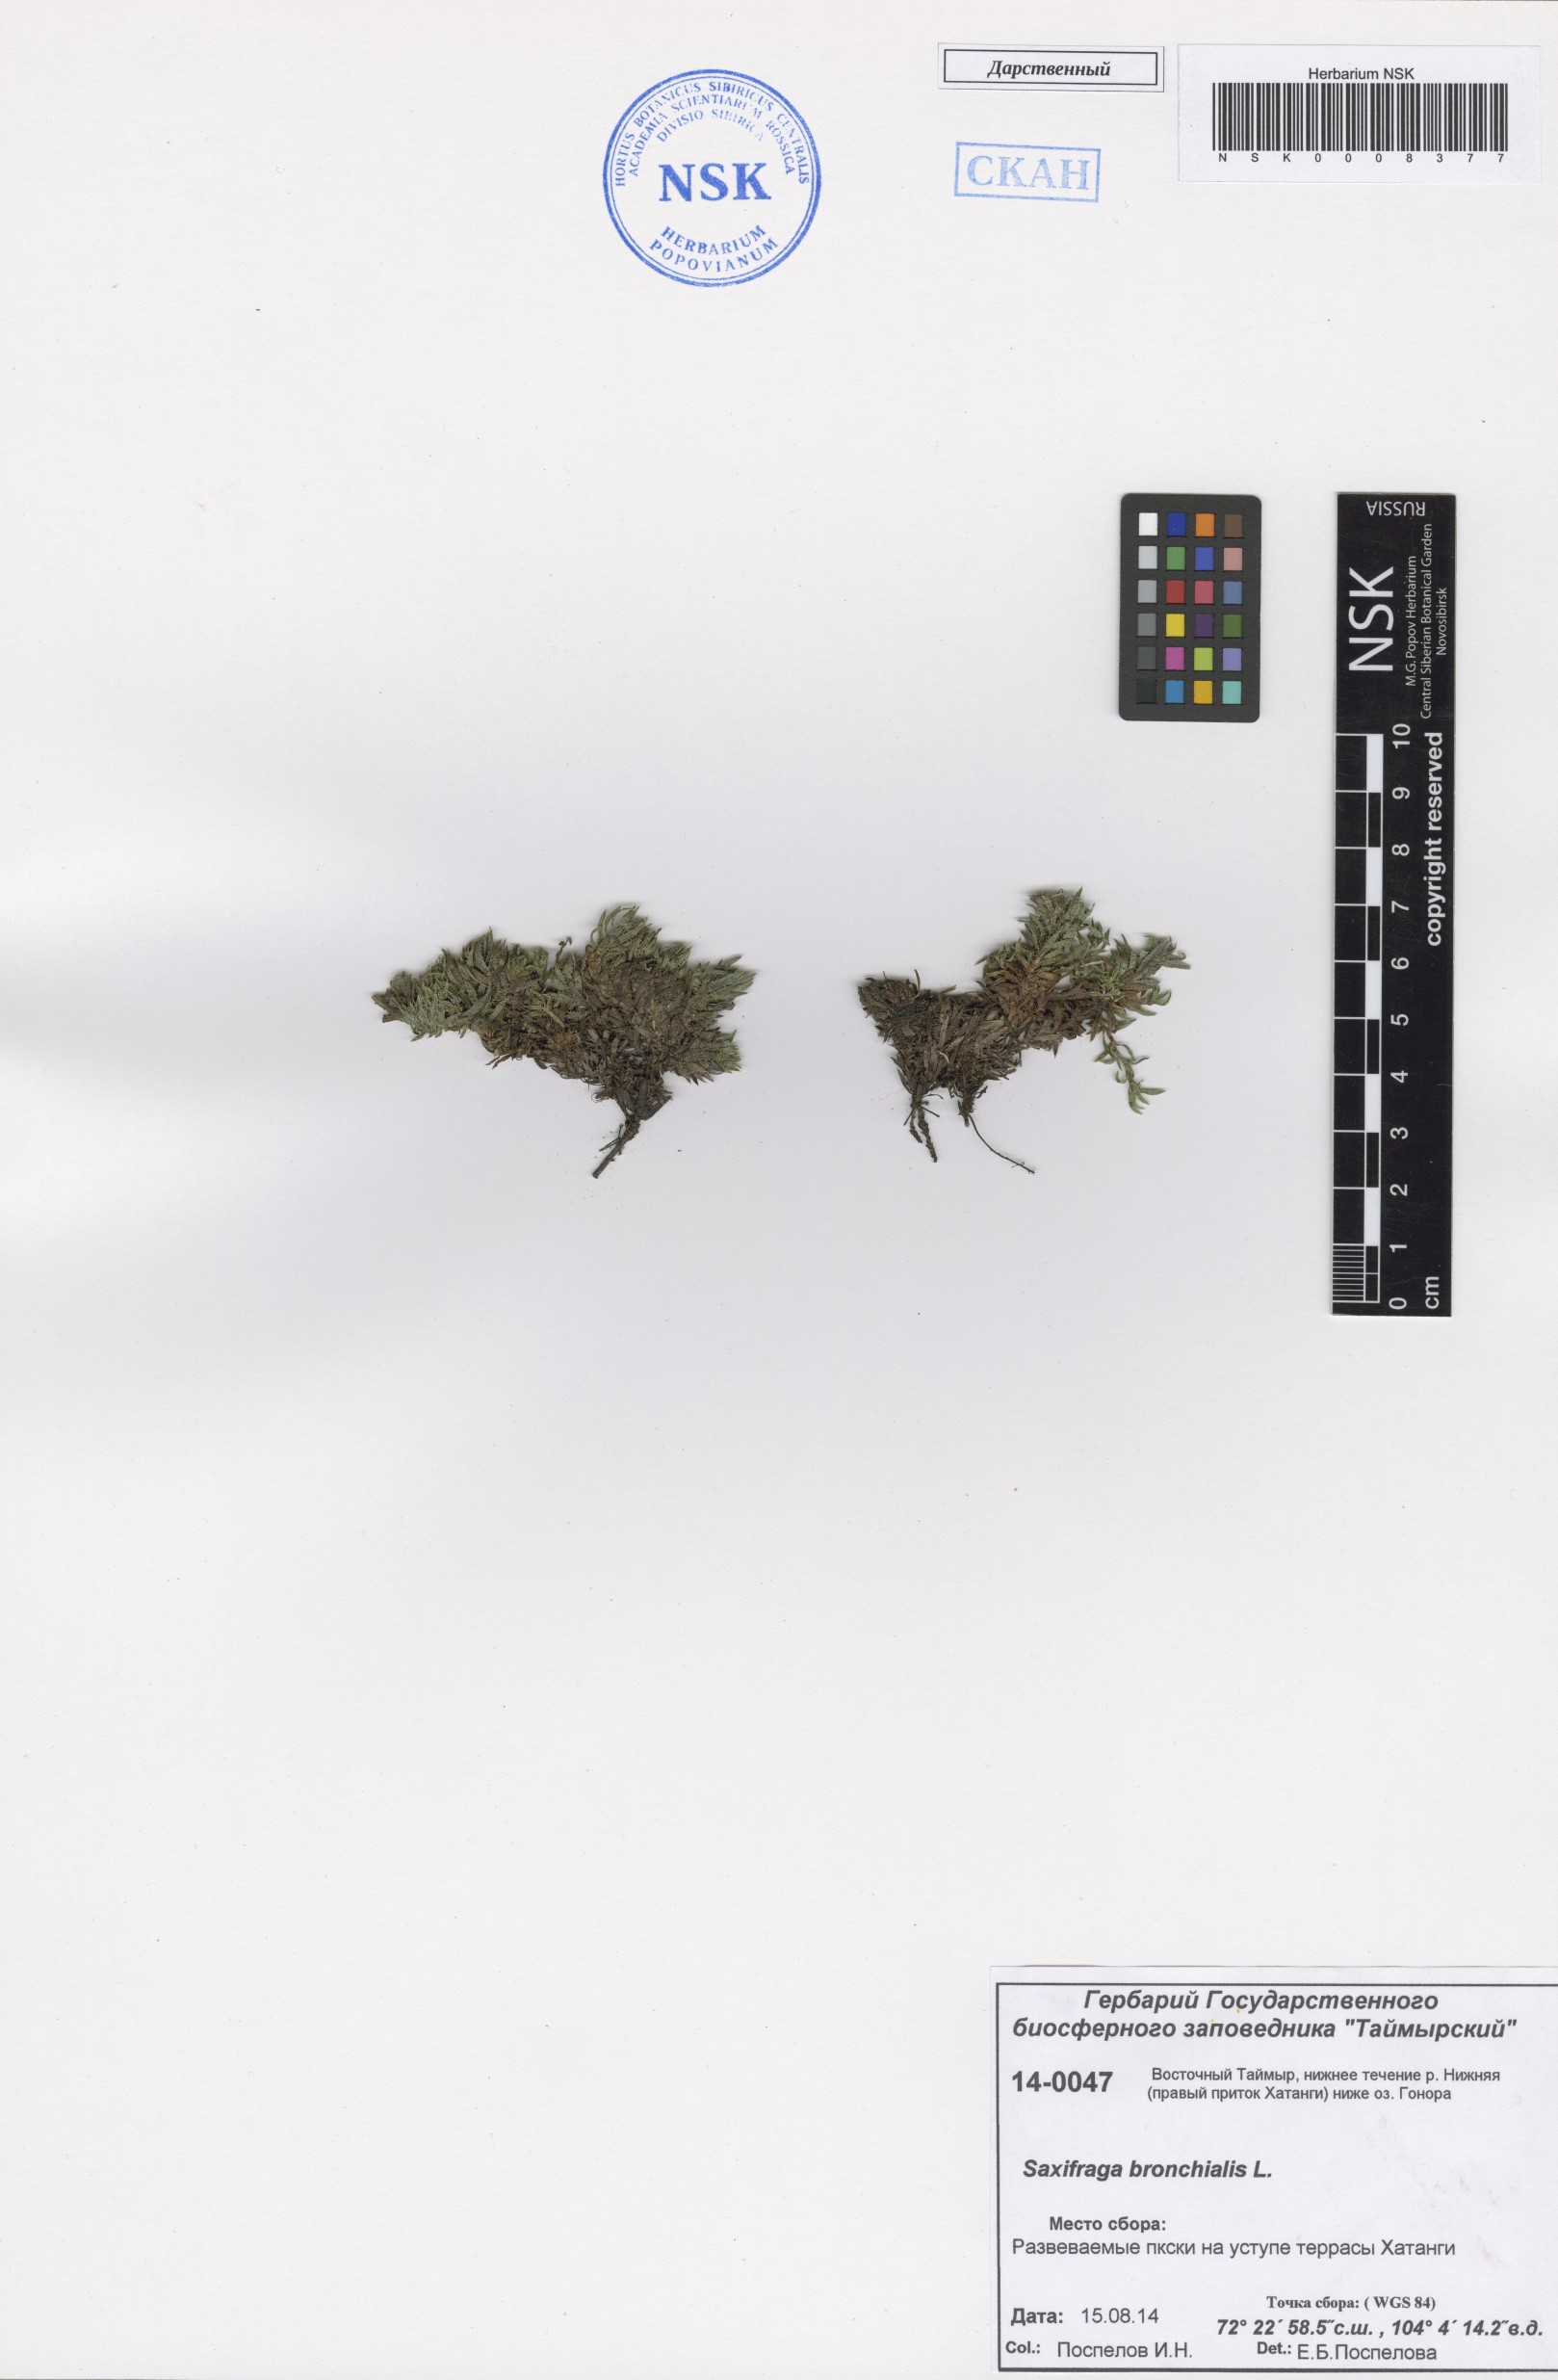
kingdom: Plantae
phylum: Tracheophyta
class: Magnoliopsida
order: Saxifragales
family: Saxifragaceae
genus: Saxifraga
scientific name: Saxifraga bronchialis
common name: Matted saxifrage
